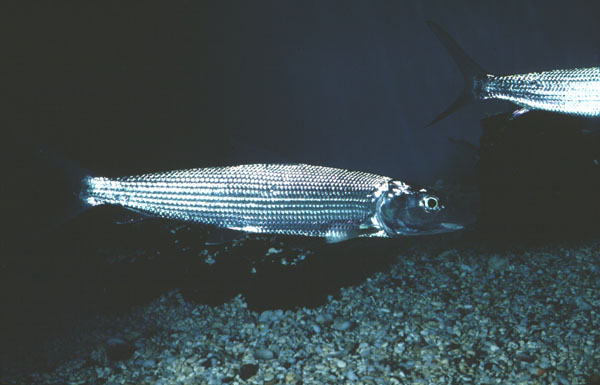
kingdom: Animalia
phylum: Chordata
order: Albuliformes
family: Albulidae
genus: Albula
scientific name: Albula
